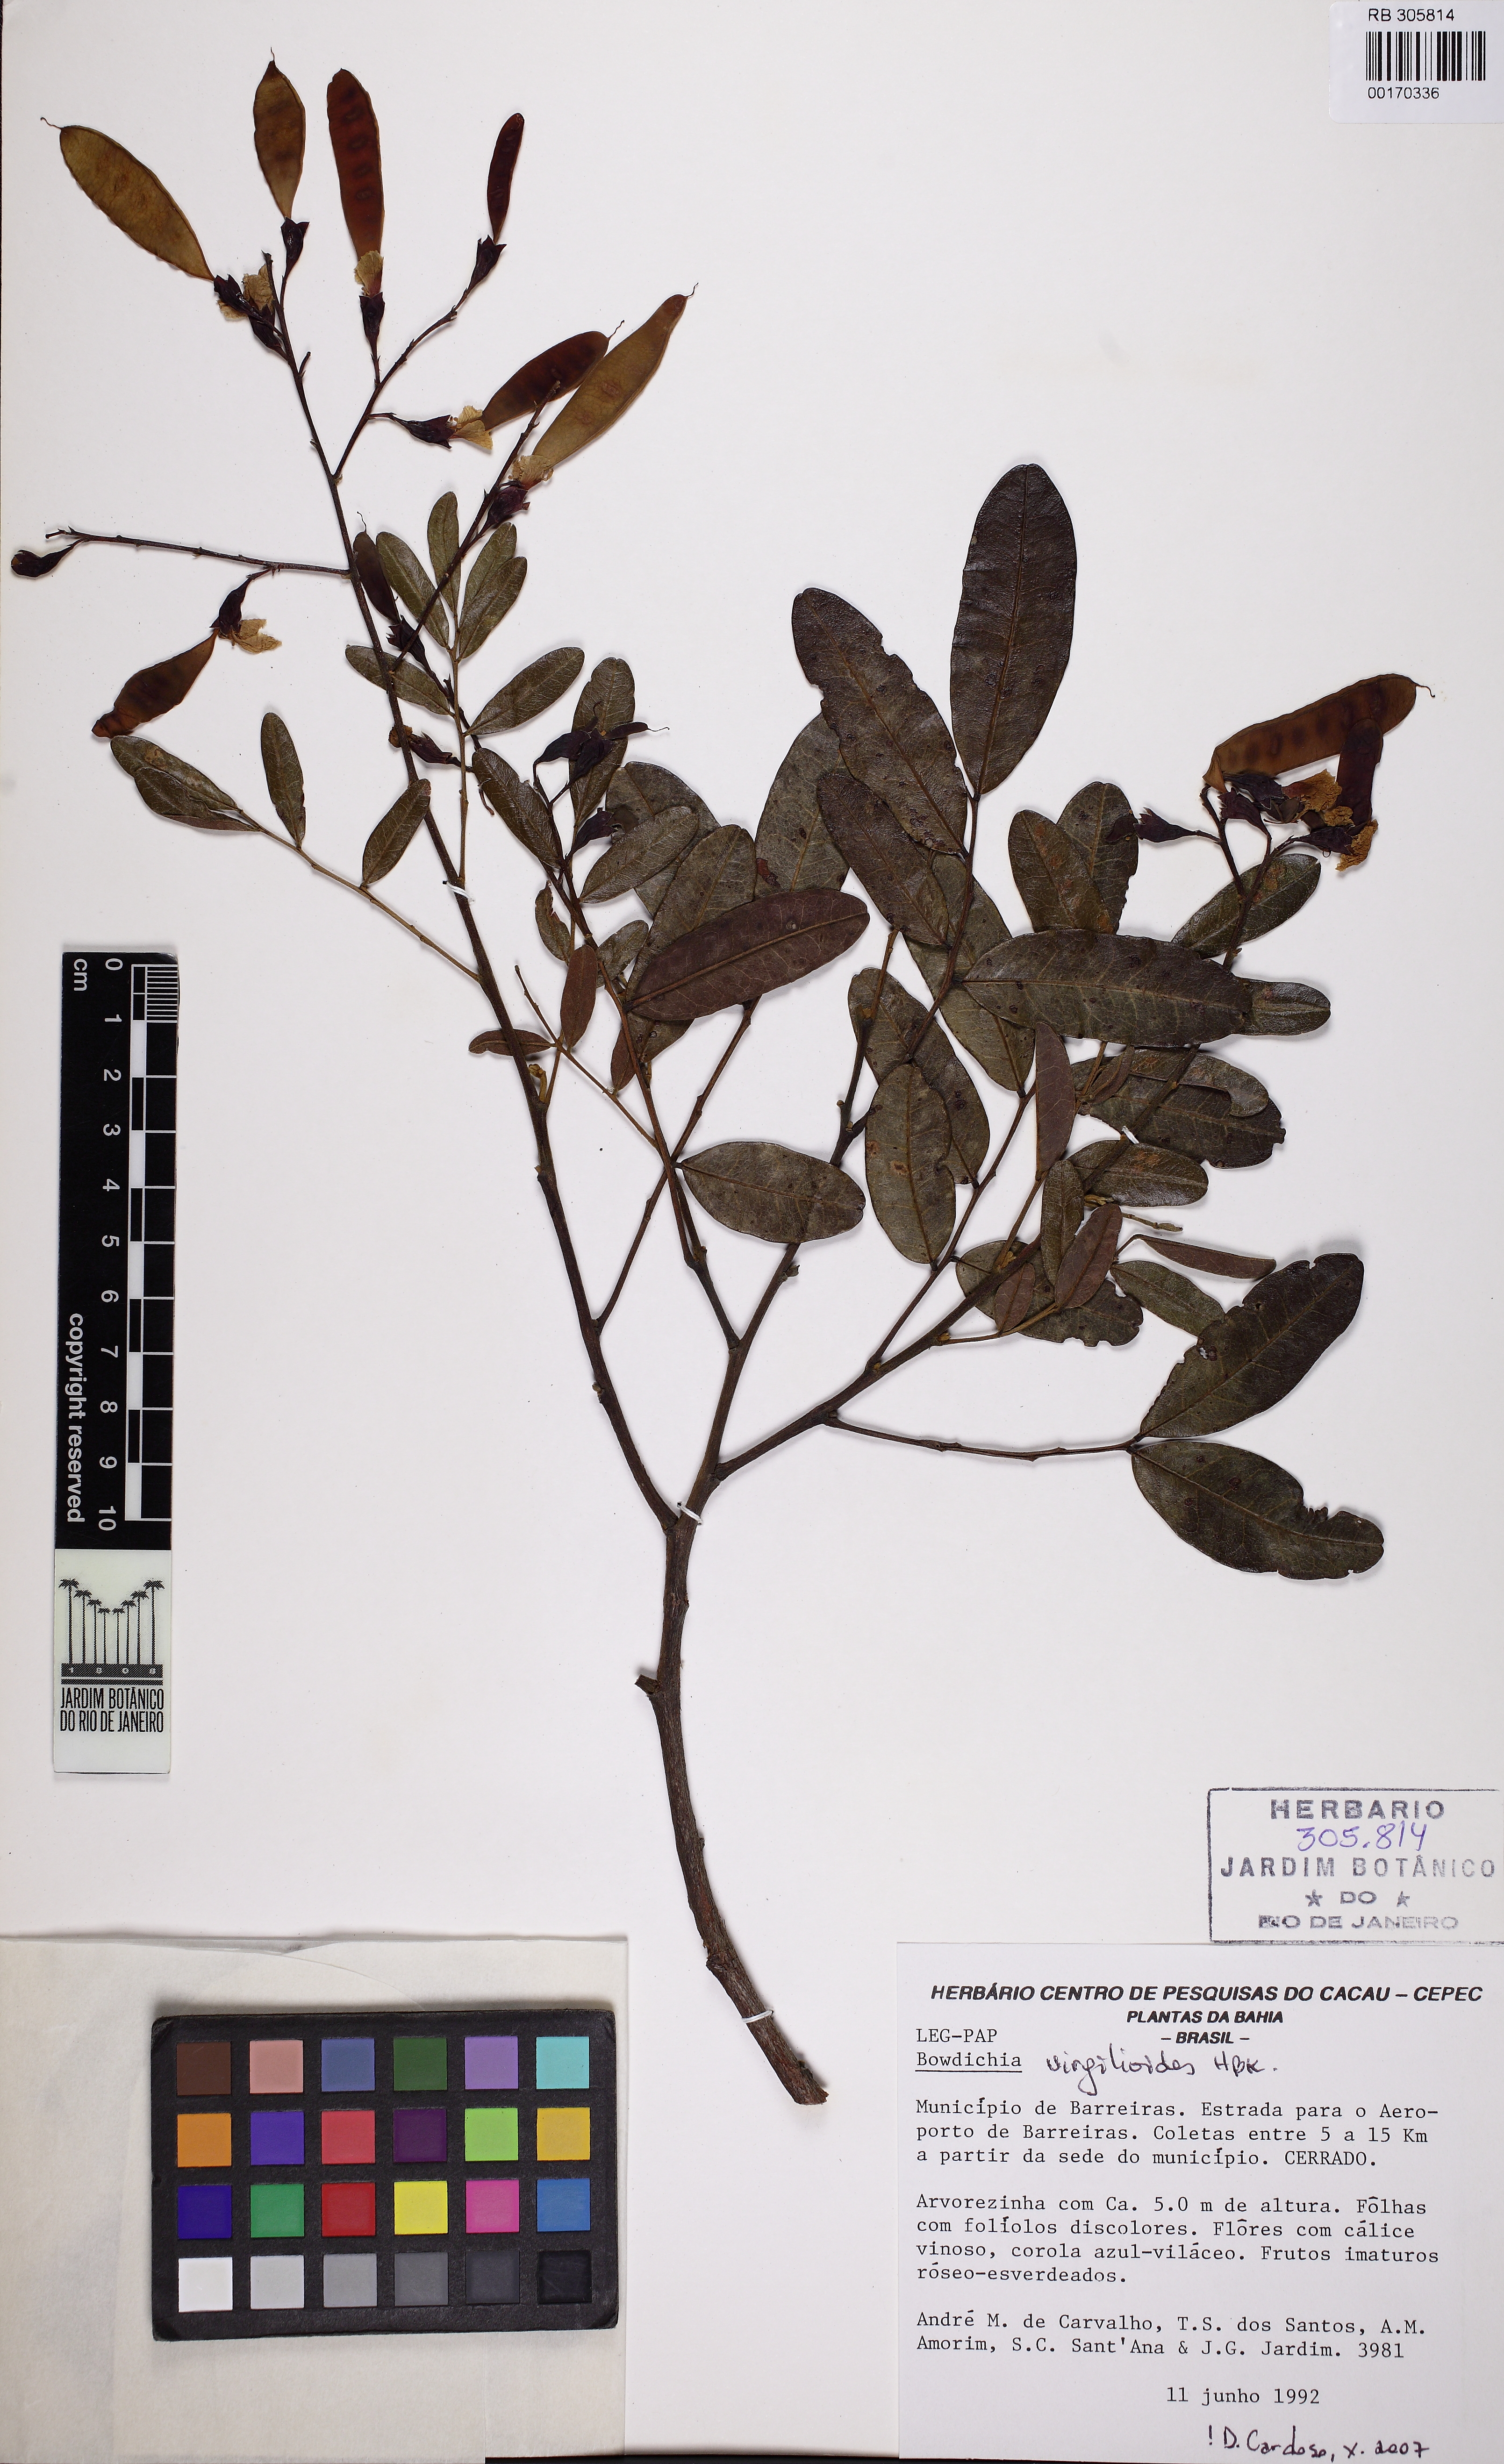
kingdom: Plantae
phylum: Tracheophyta
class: Magnoliopsida
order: Fabales
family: Fabaceae
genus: Bowdichia
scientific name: Bowdichia virgilioides
